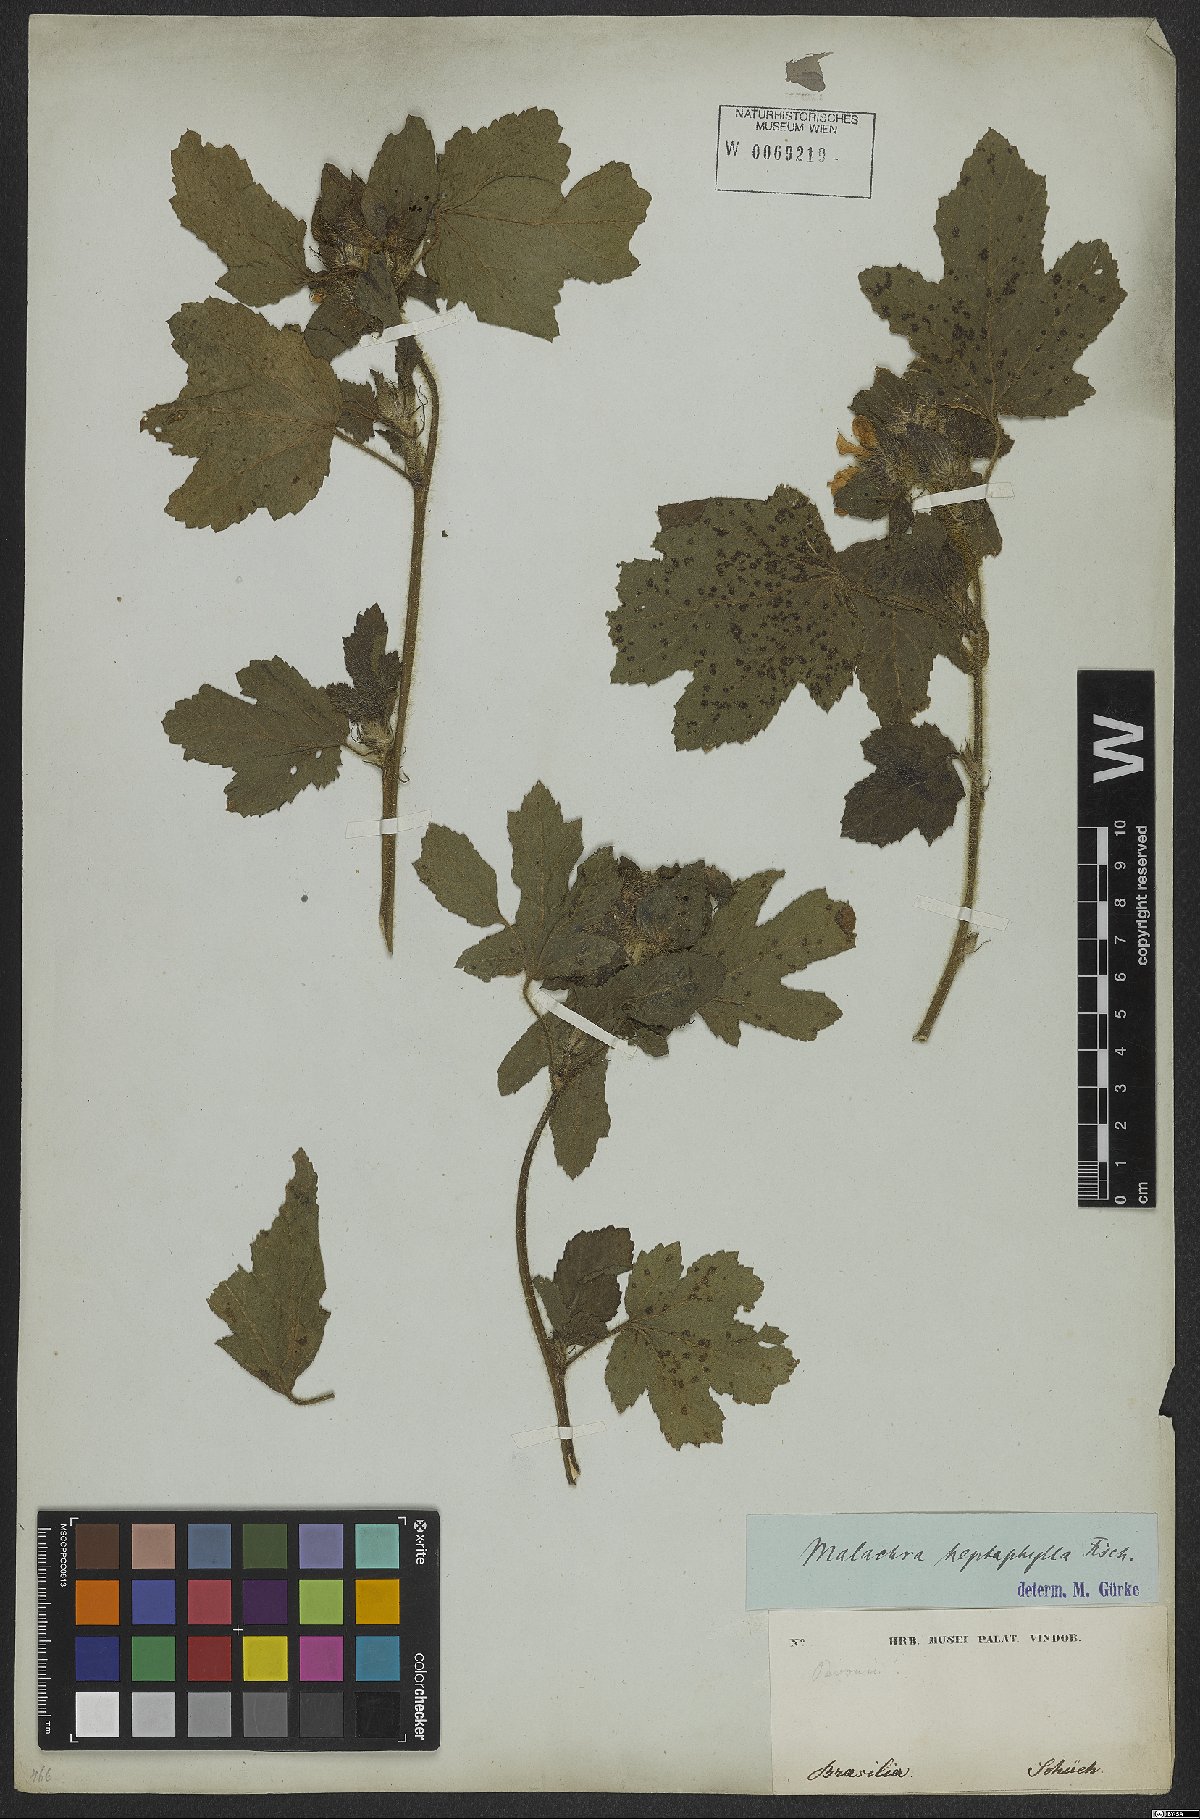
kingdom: Plantae
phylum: Tracheophyta
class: Magnoliopsida
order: Malvales
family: Malvaceae
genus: Malachra
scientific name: Malachra capitata
